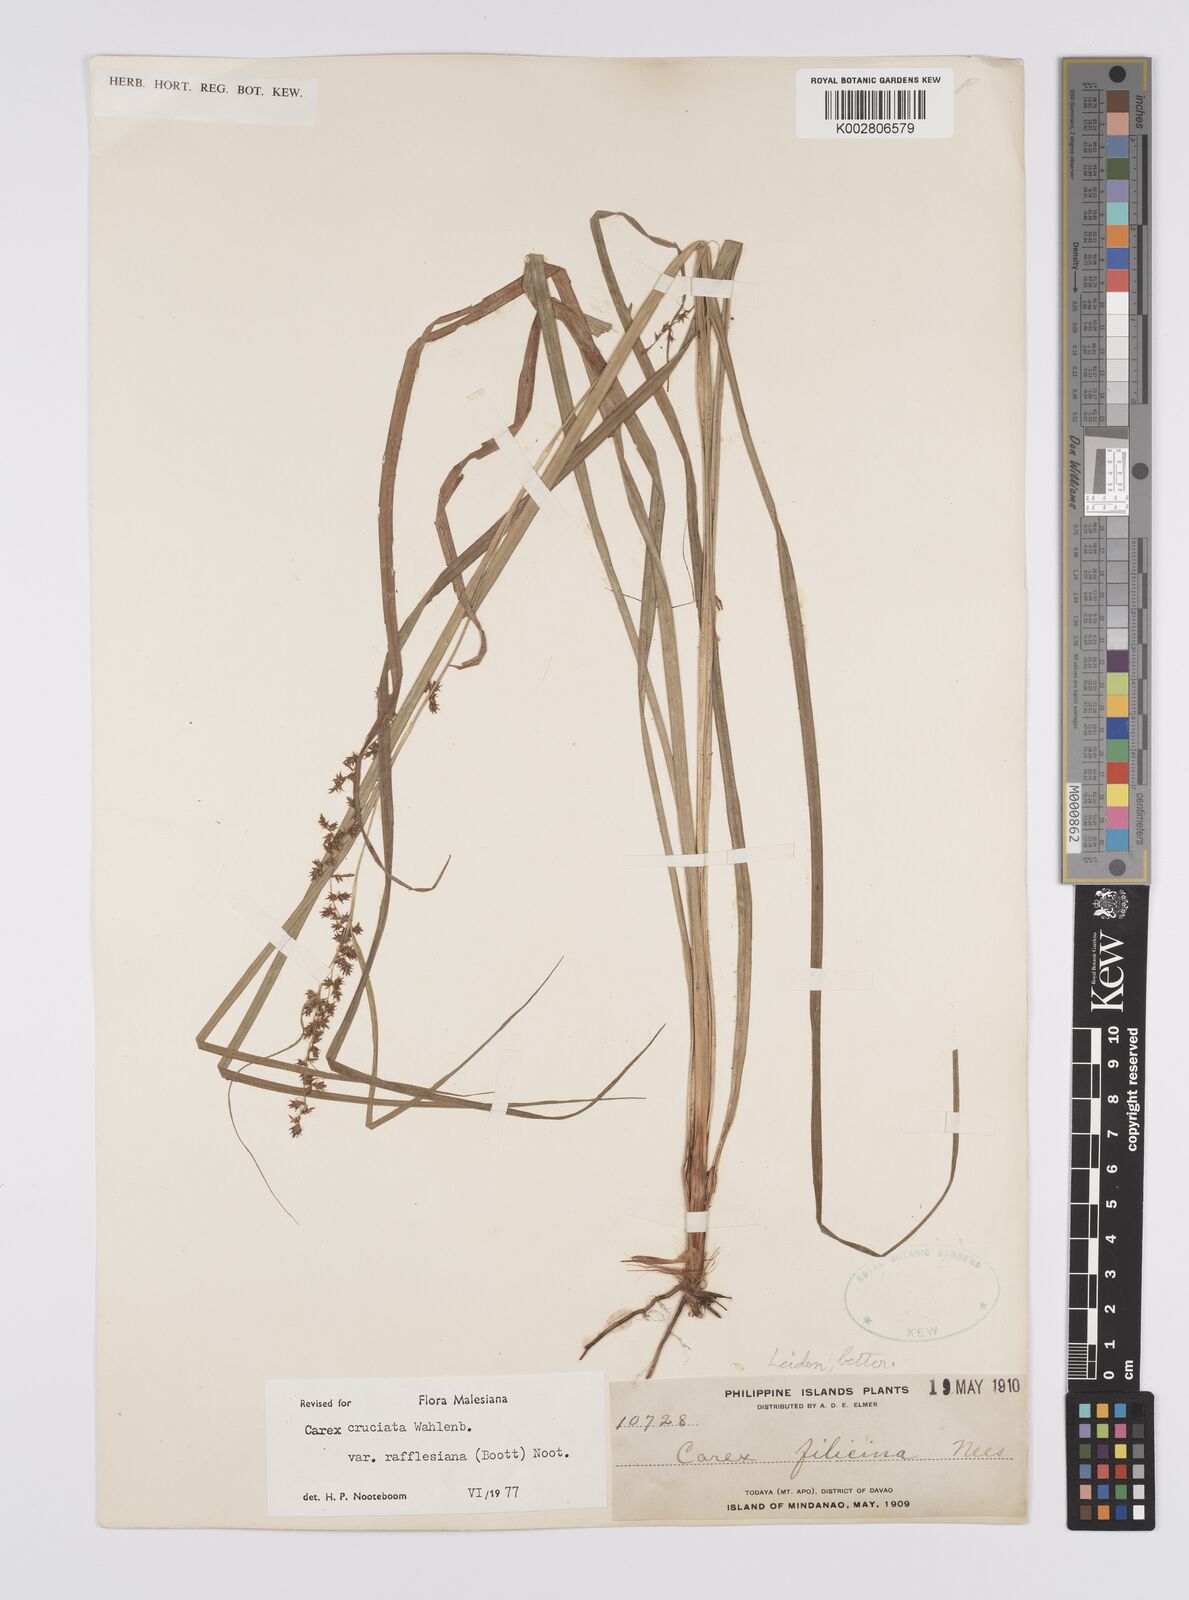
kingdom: Plantae
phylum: Tracheophyta
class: Liliopsida
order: Poales
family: Cyperaceae
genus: Carex
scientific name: Carex rafflesiana
